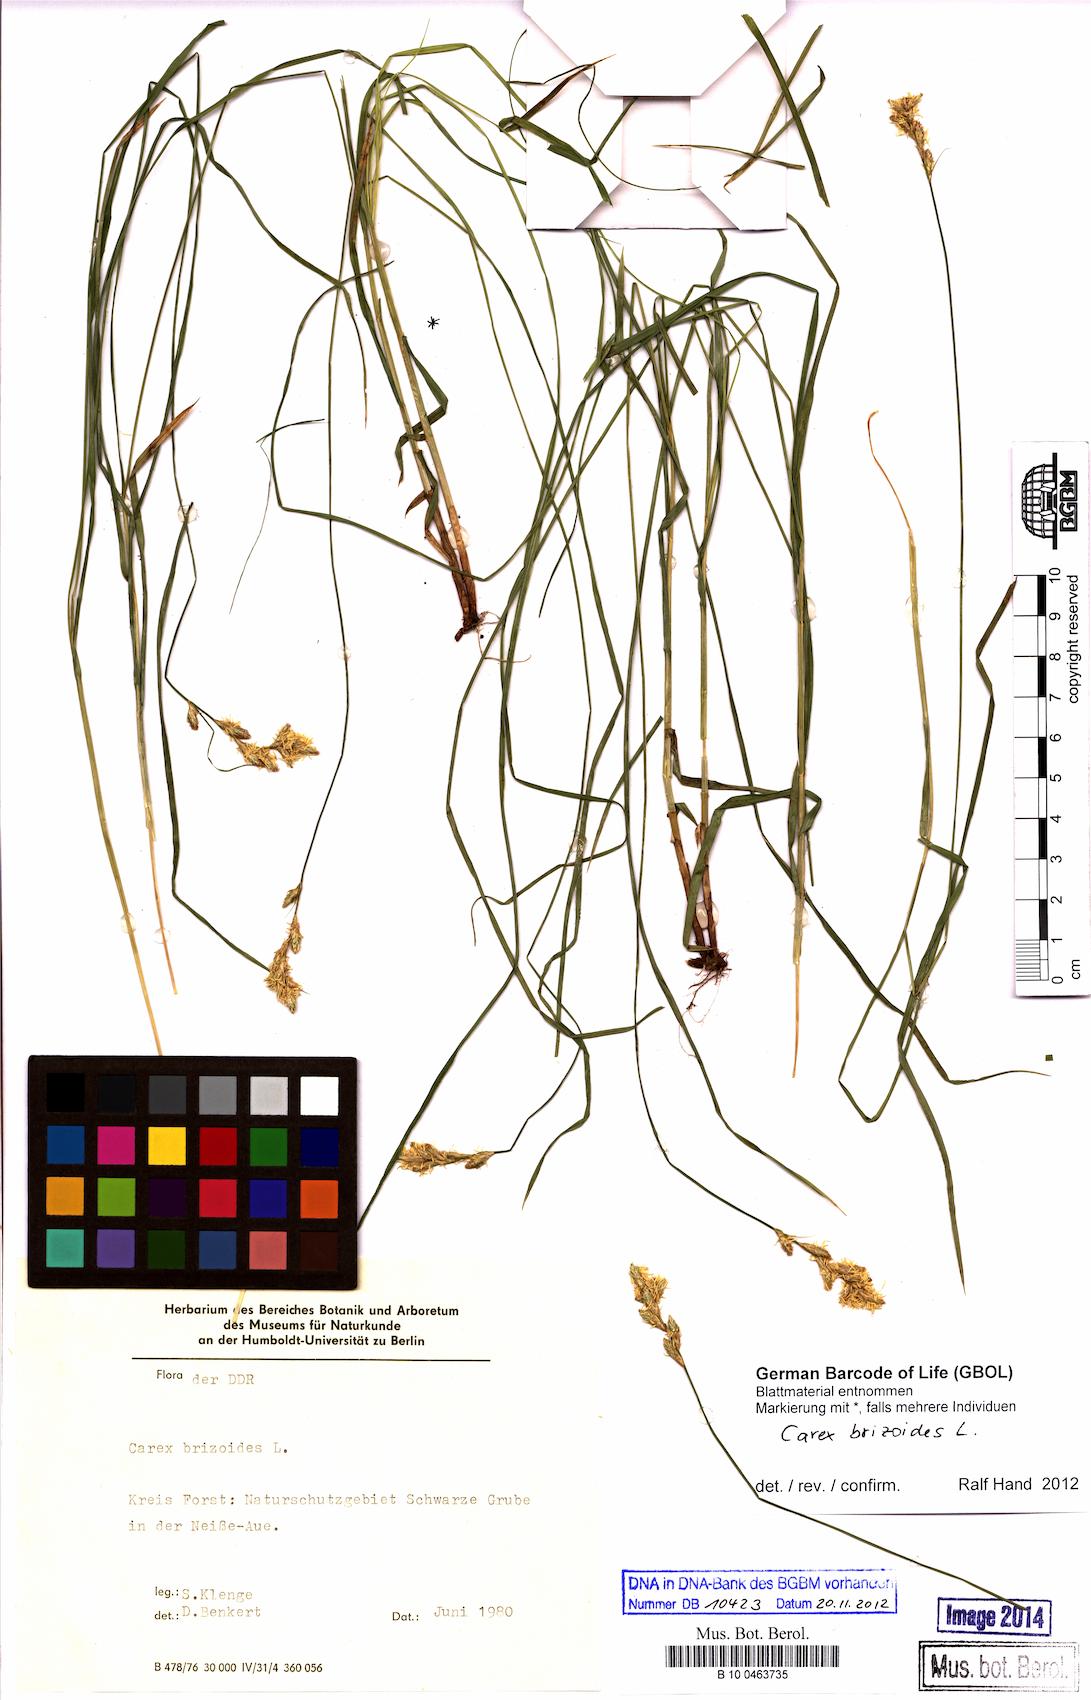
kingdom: Plantae
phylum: Tracheophyta
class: Liliopsida
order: Poales
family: Cyperaceae
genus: Carex
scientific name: Carex brizoides
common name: Quaking-grass sedge
